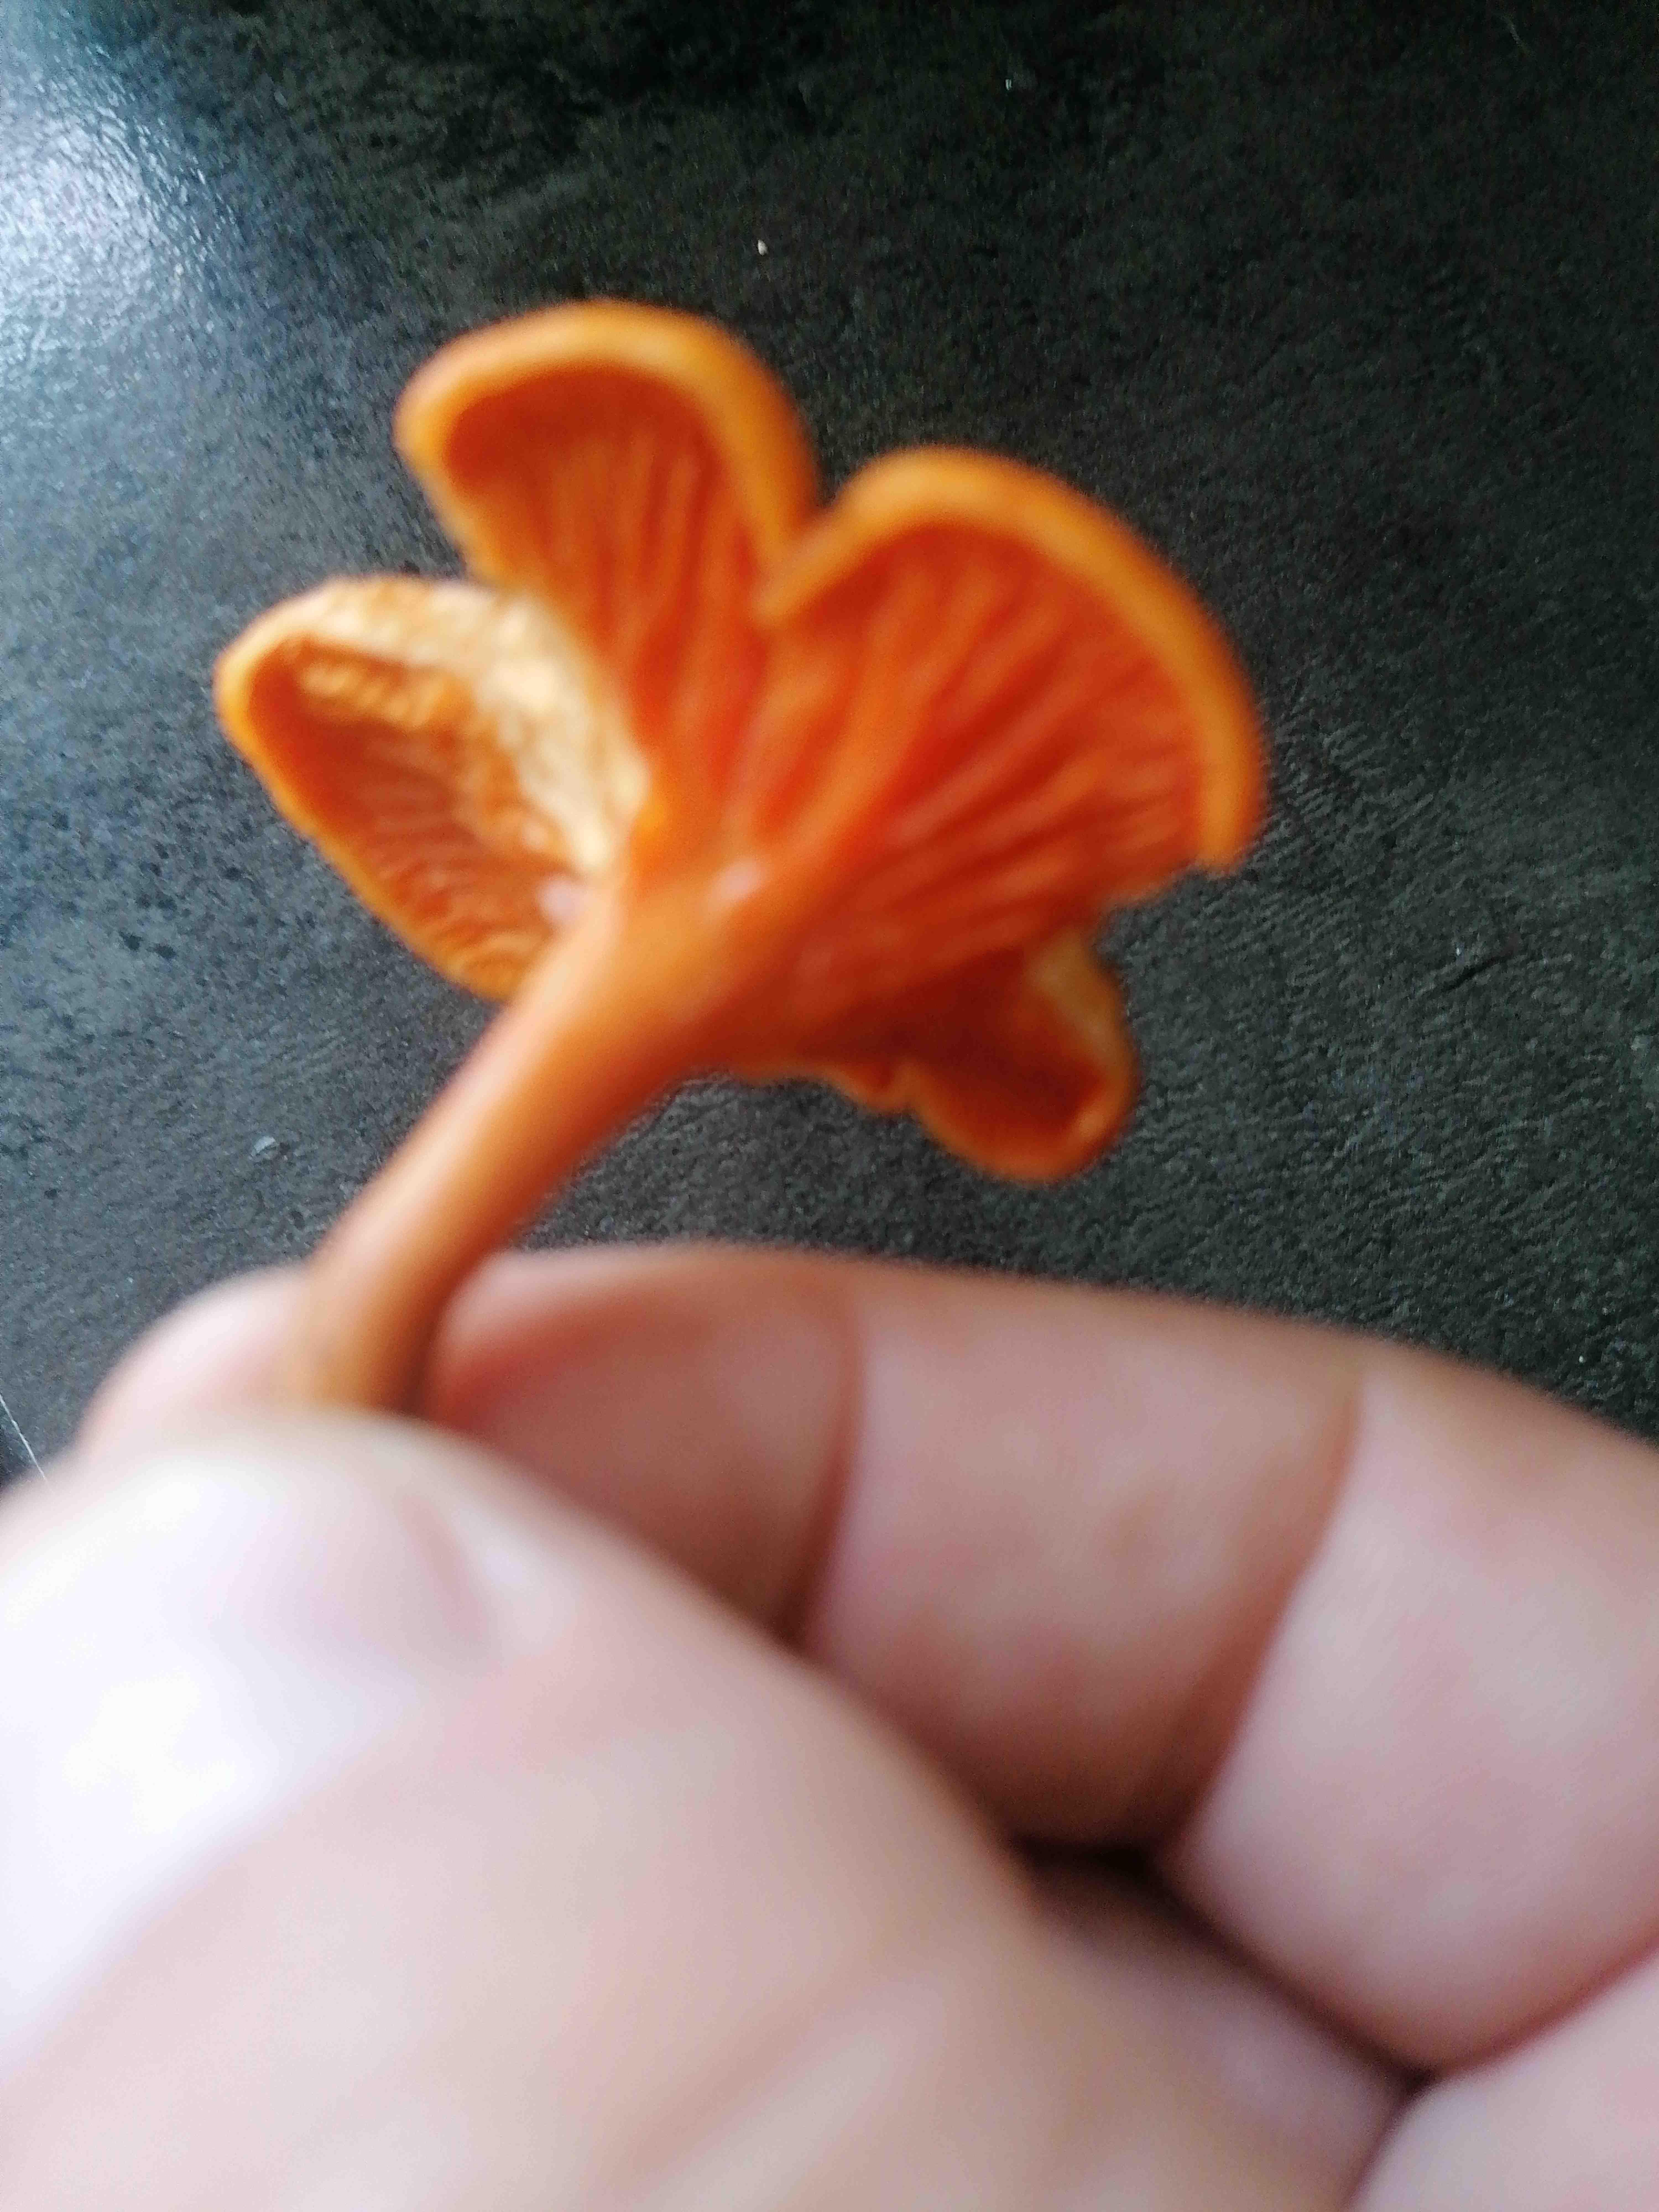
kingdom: Fungi
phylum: Basidiomycota
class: Agaricomycetes
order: Boletales
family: Hygrophoropsidaceae
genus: Hygrophoropsis
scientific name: Hygrophoropsis aurantiaca
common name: almindelig orangekantarel
